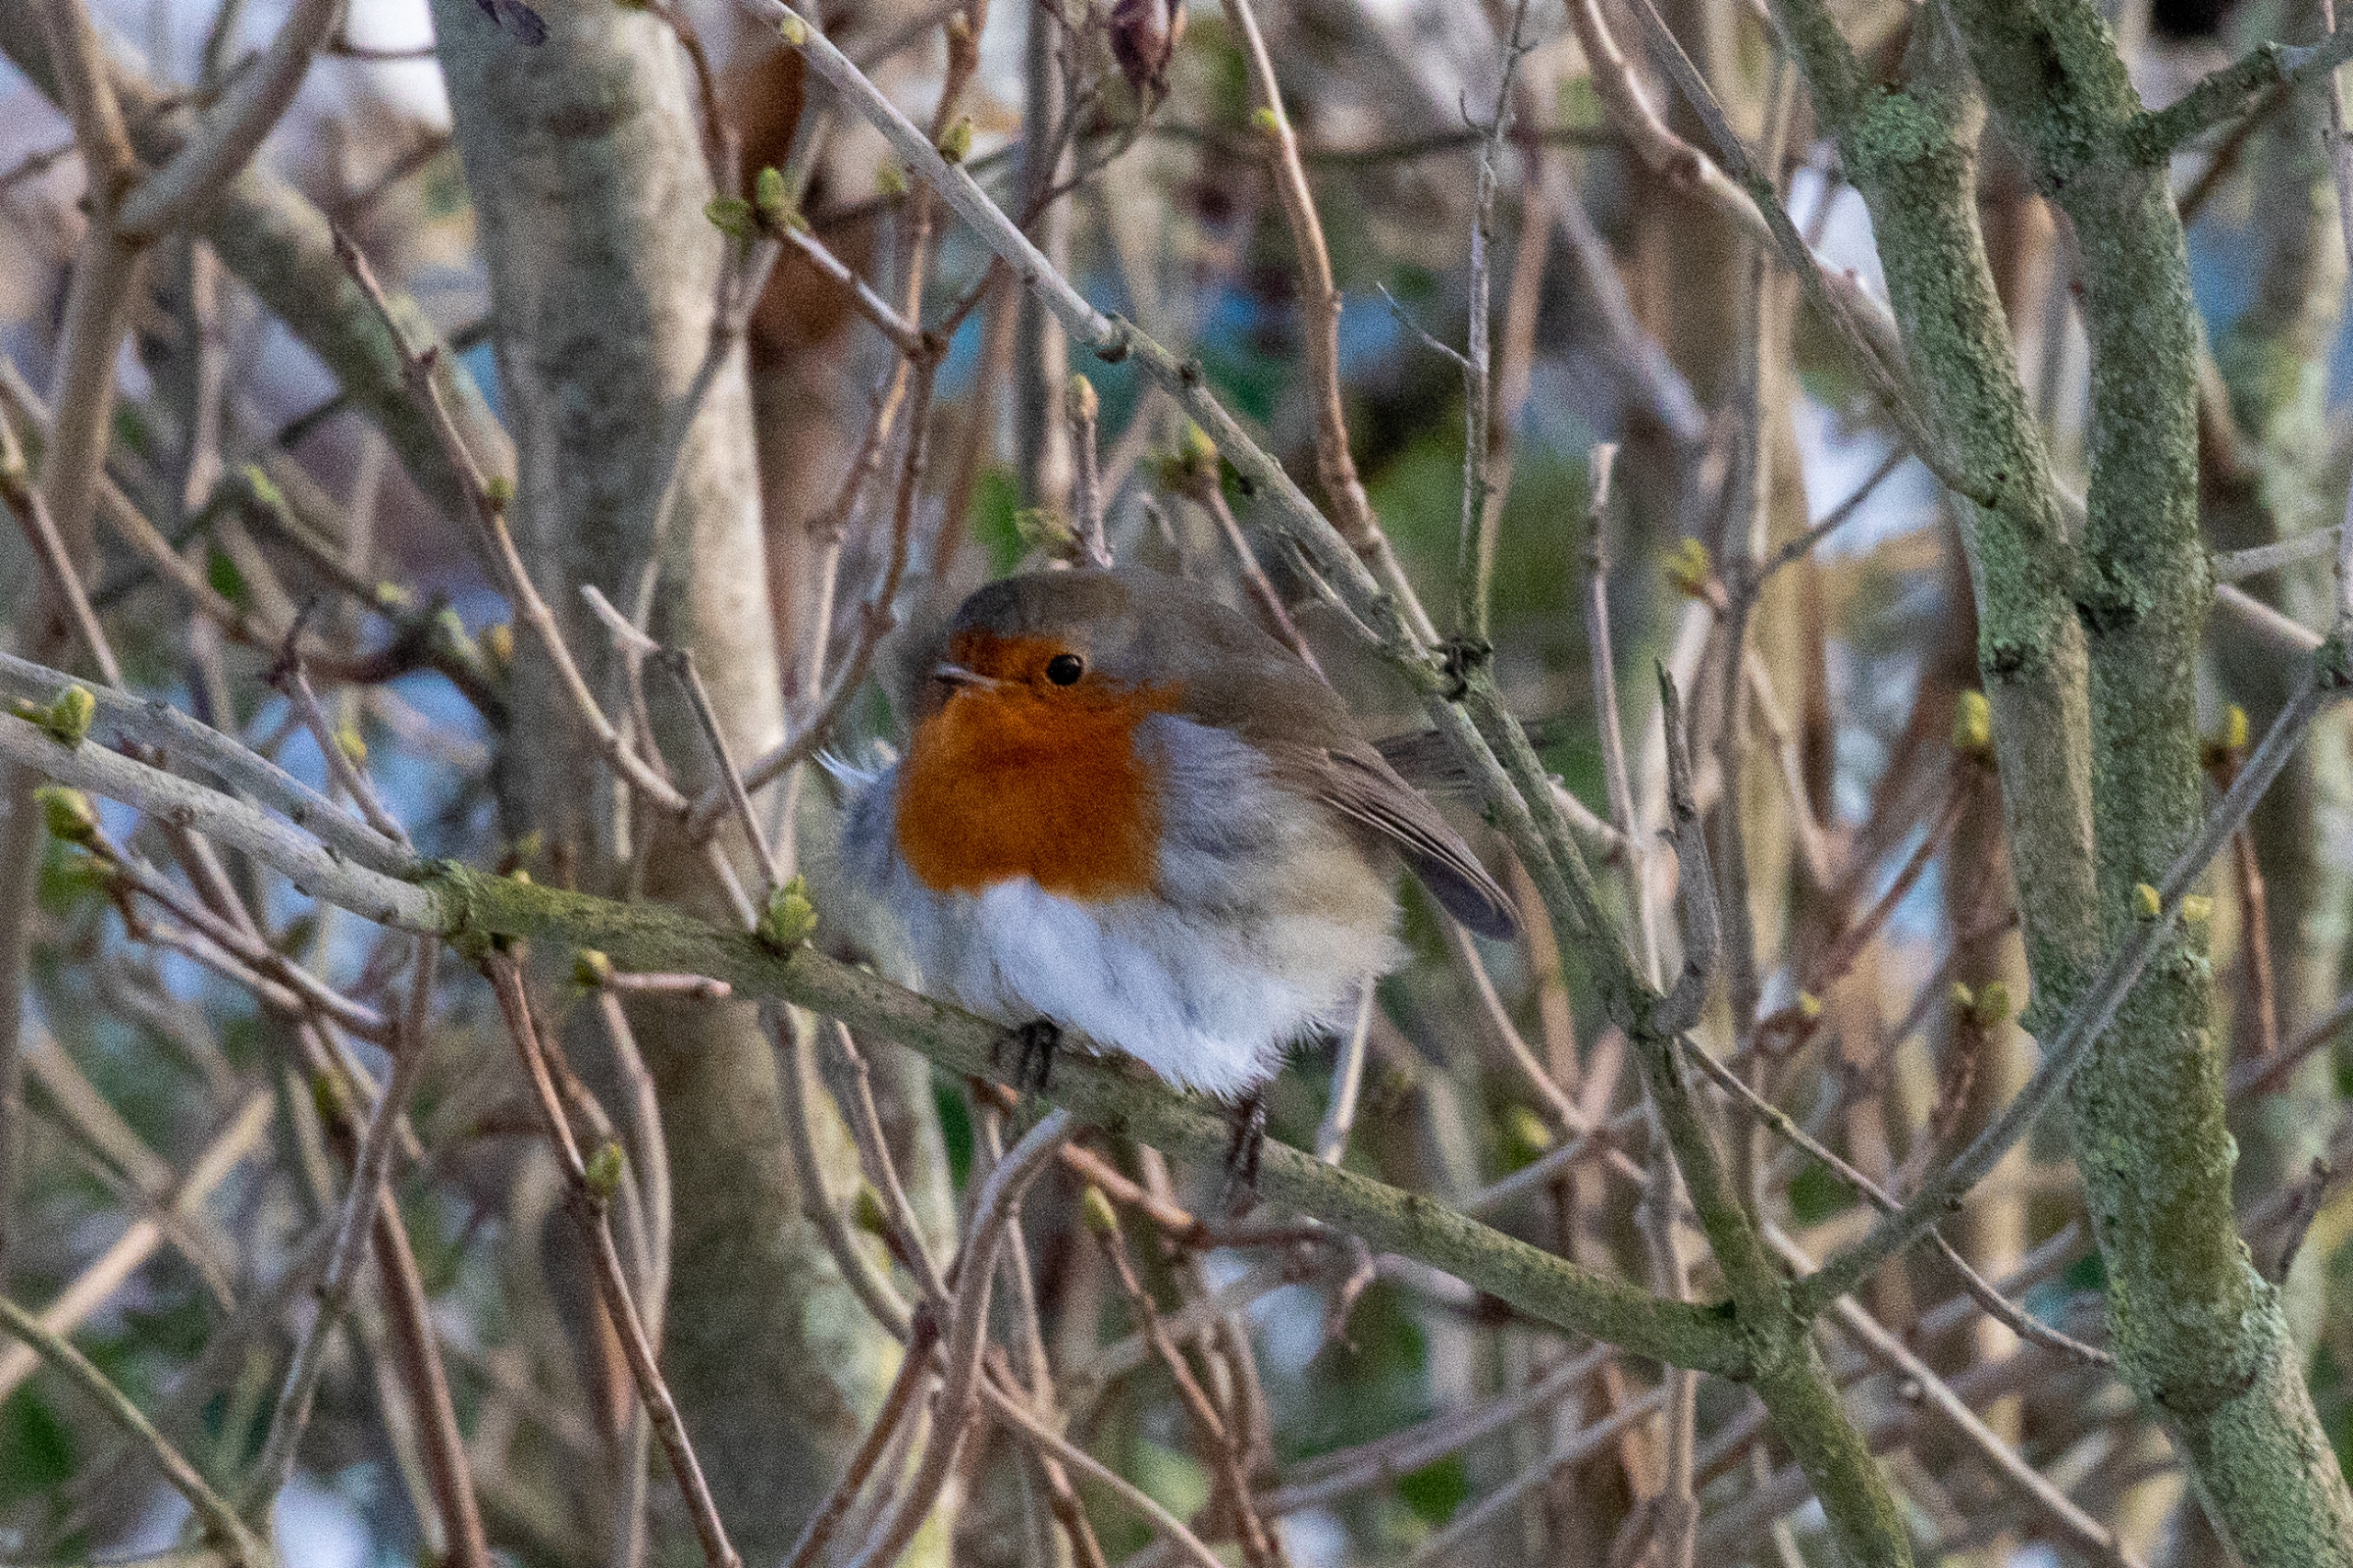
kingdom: Animalia
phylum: Chordata
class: Aves
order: Passeriformes
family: Muscicapidae
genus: Erithacus
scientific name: Erithacus rubecula
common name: Rødhals/rødkælk
